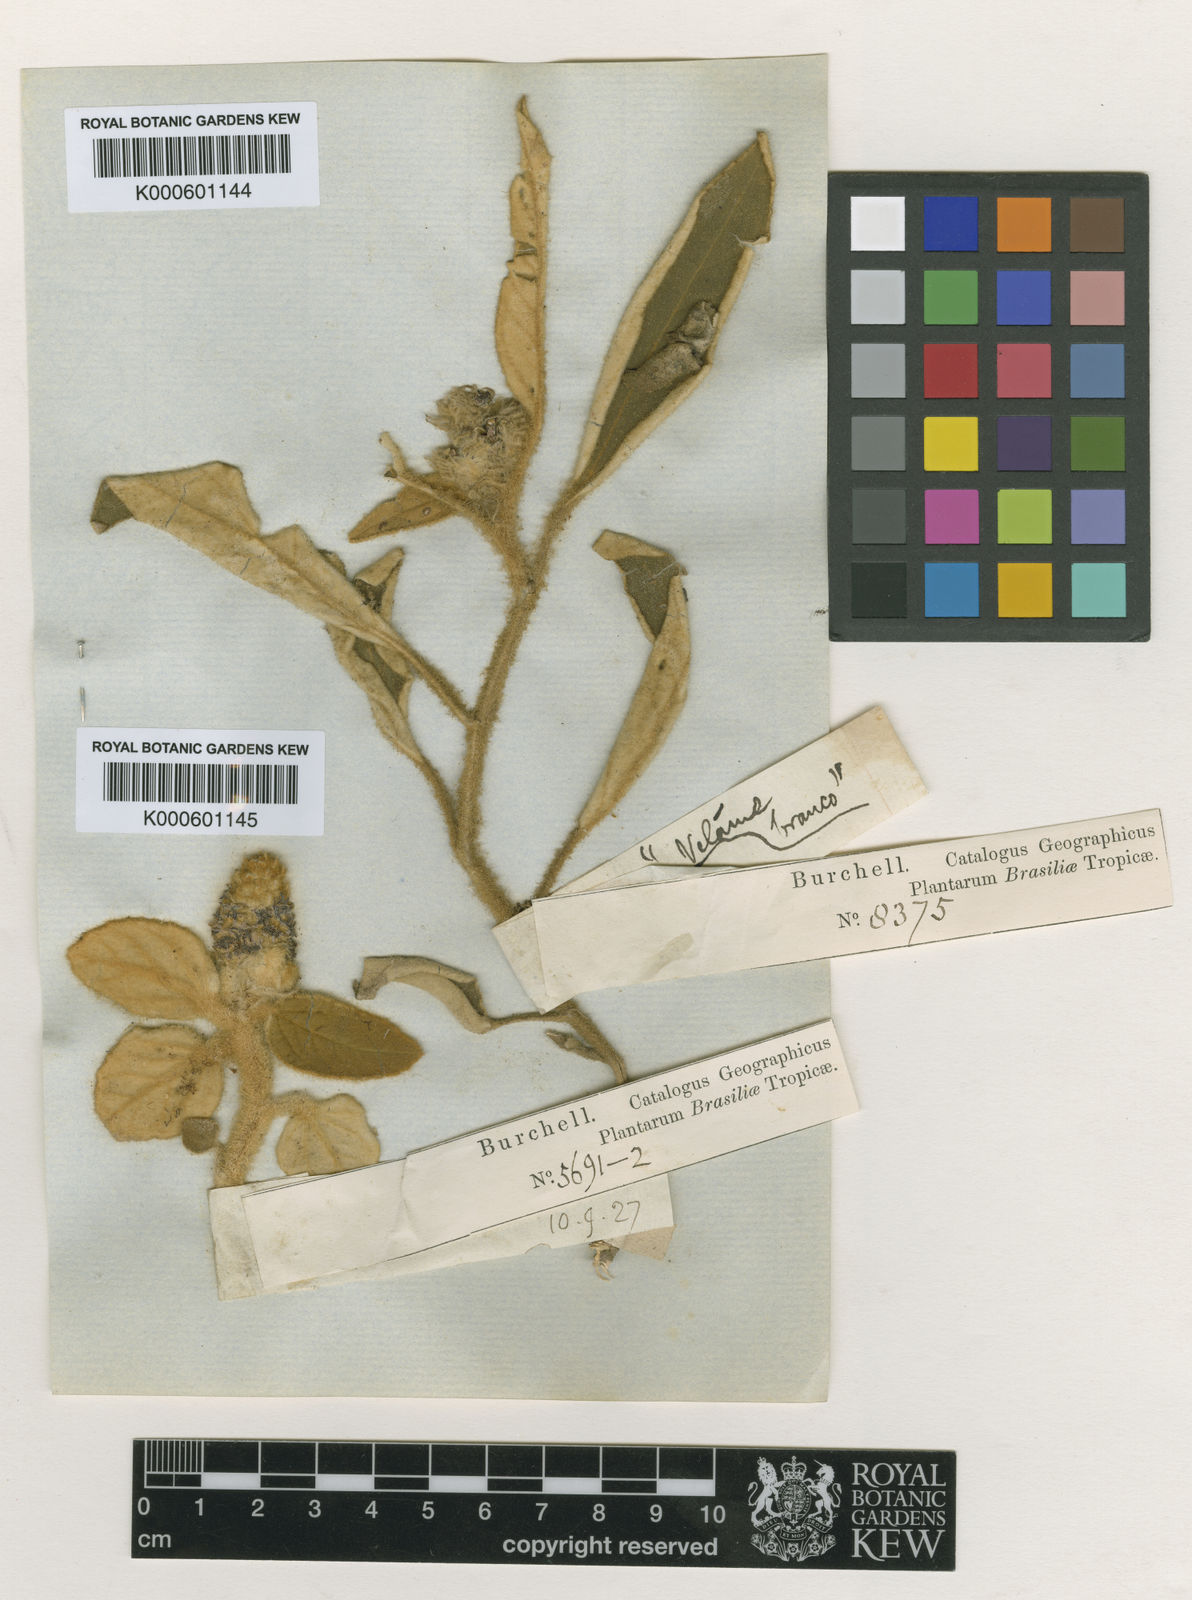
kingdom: Plantae
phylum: Tracheophyta
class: Magnoliopsida
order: Malpighiales
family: Euphorbiaceae
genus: Croton
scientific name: Croton solanaceus
